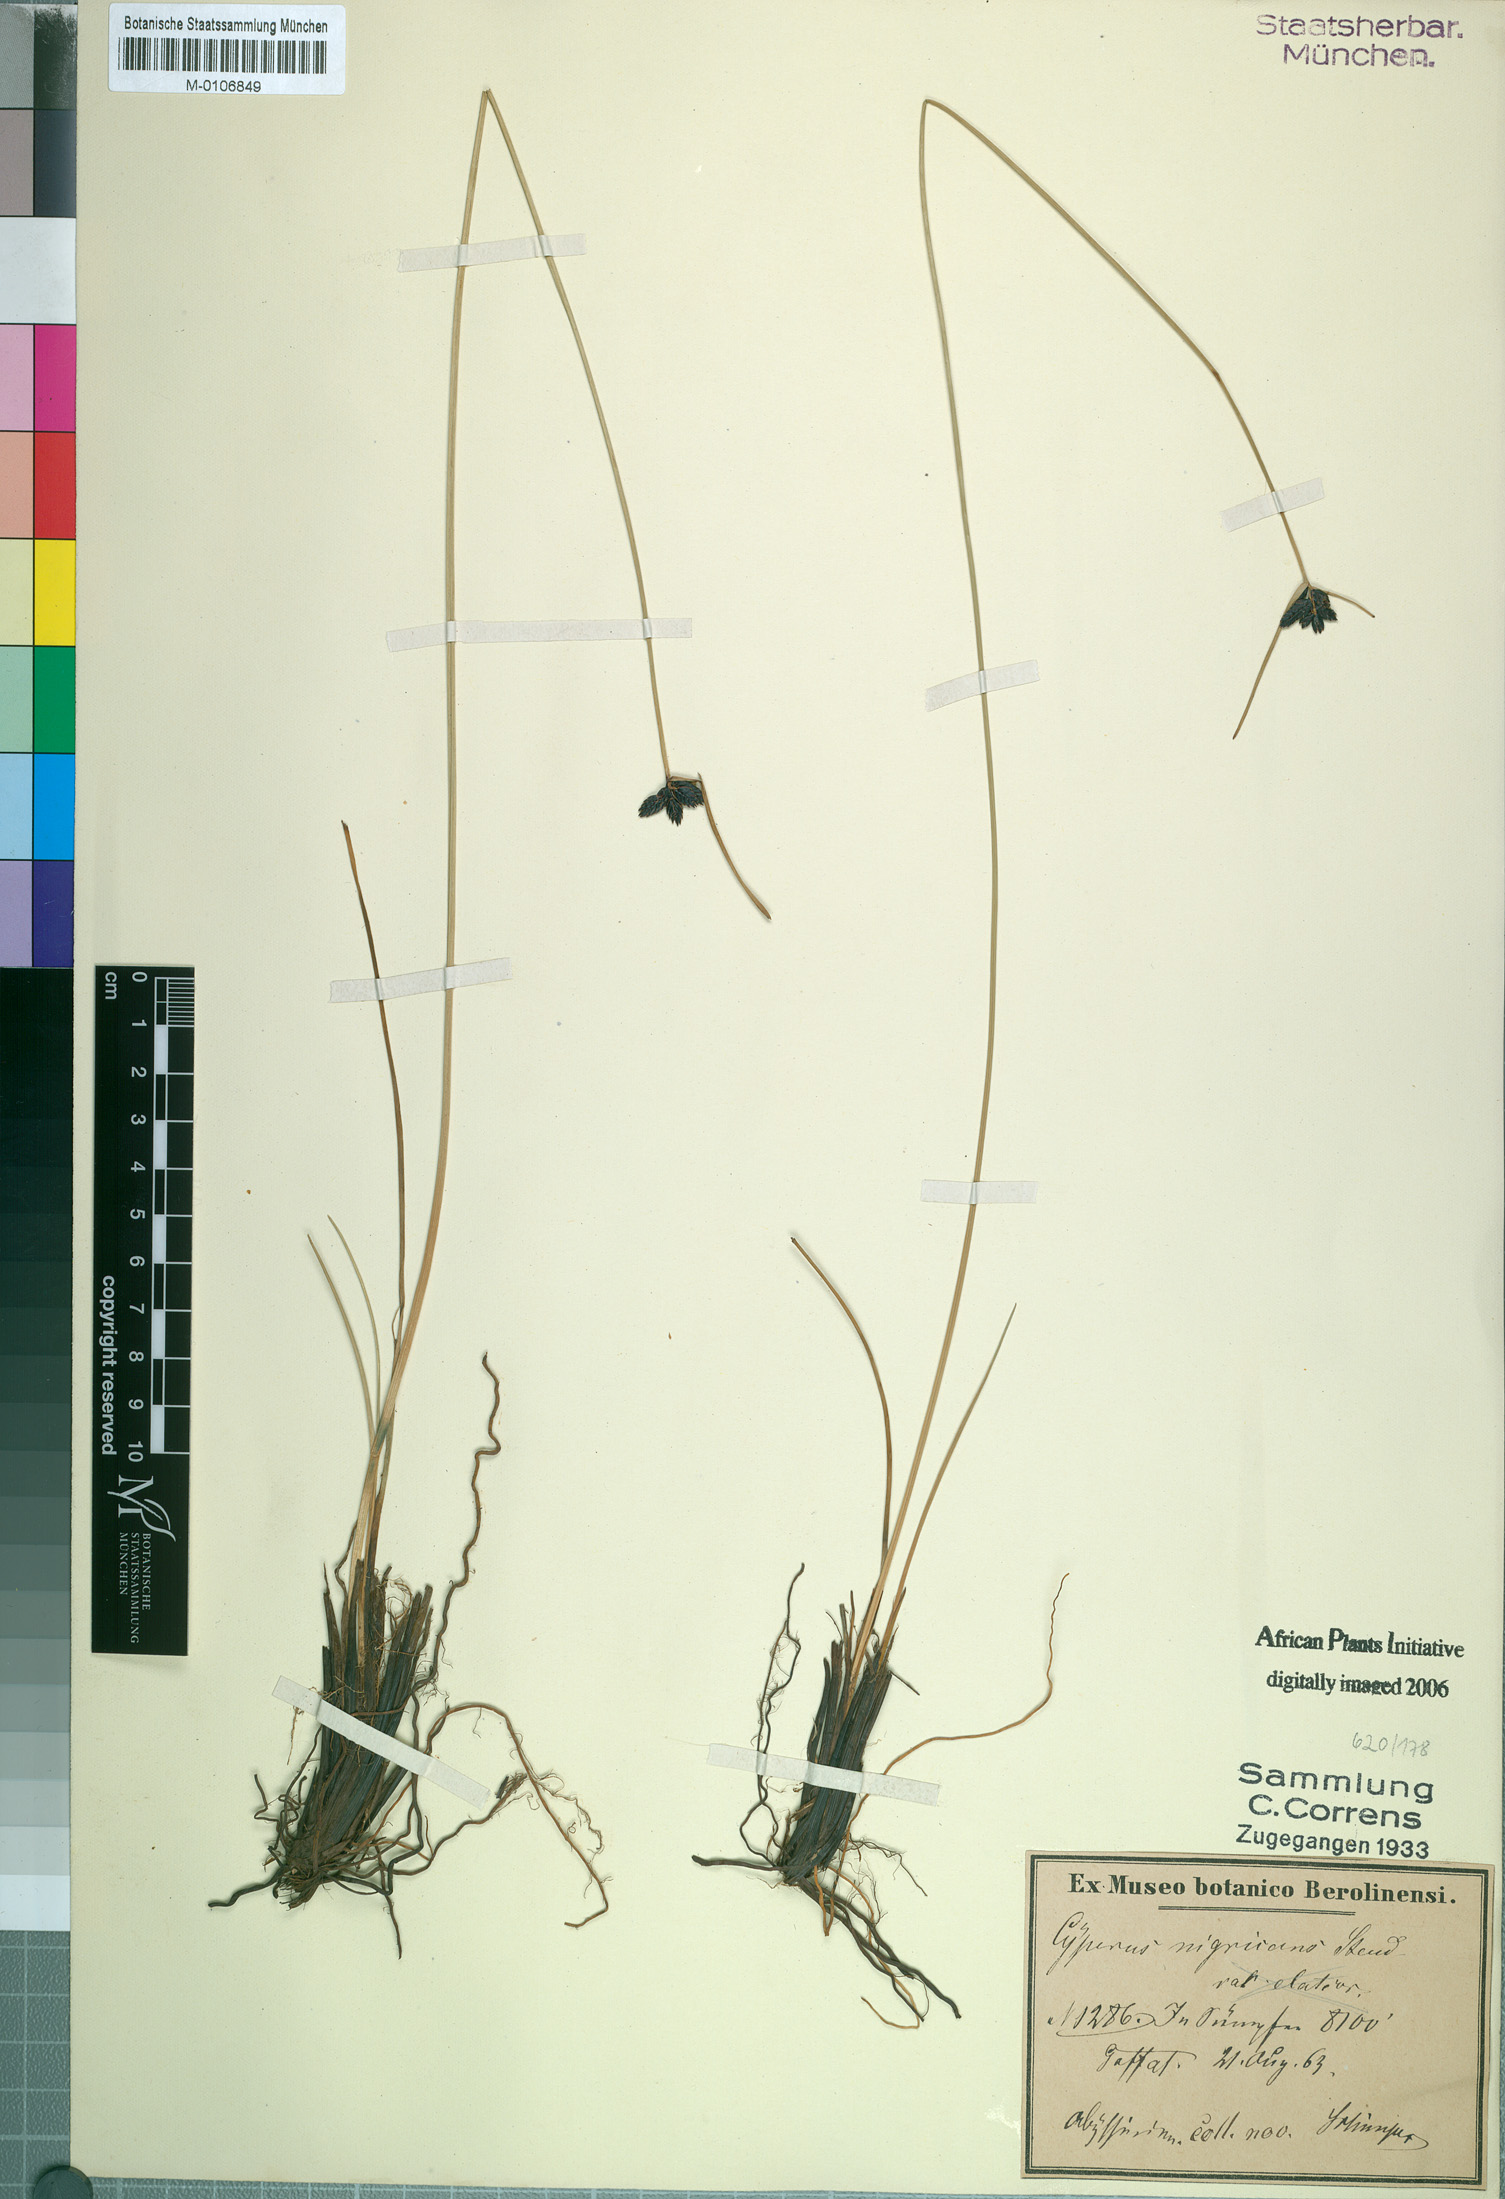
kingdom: Plantae
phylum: Tracheophyta
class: Liliopsida
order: Poales
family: Cyperaceae
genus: Cyperus
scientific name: Cyperus nigricans
